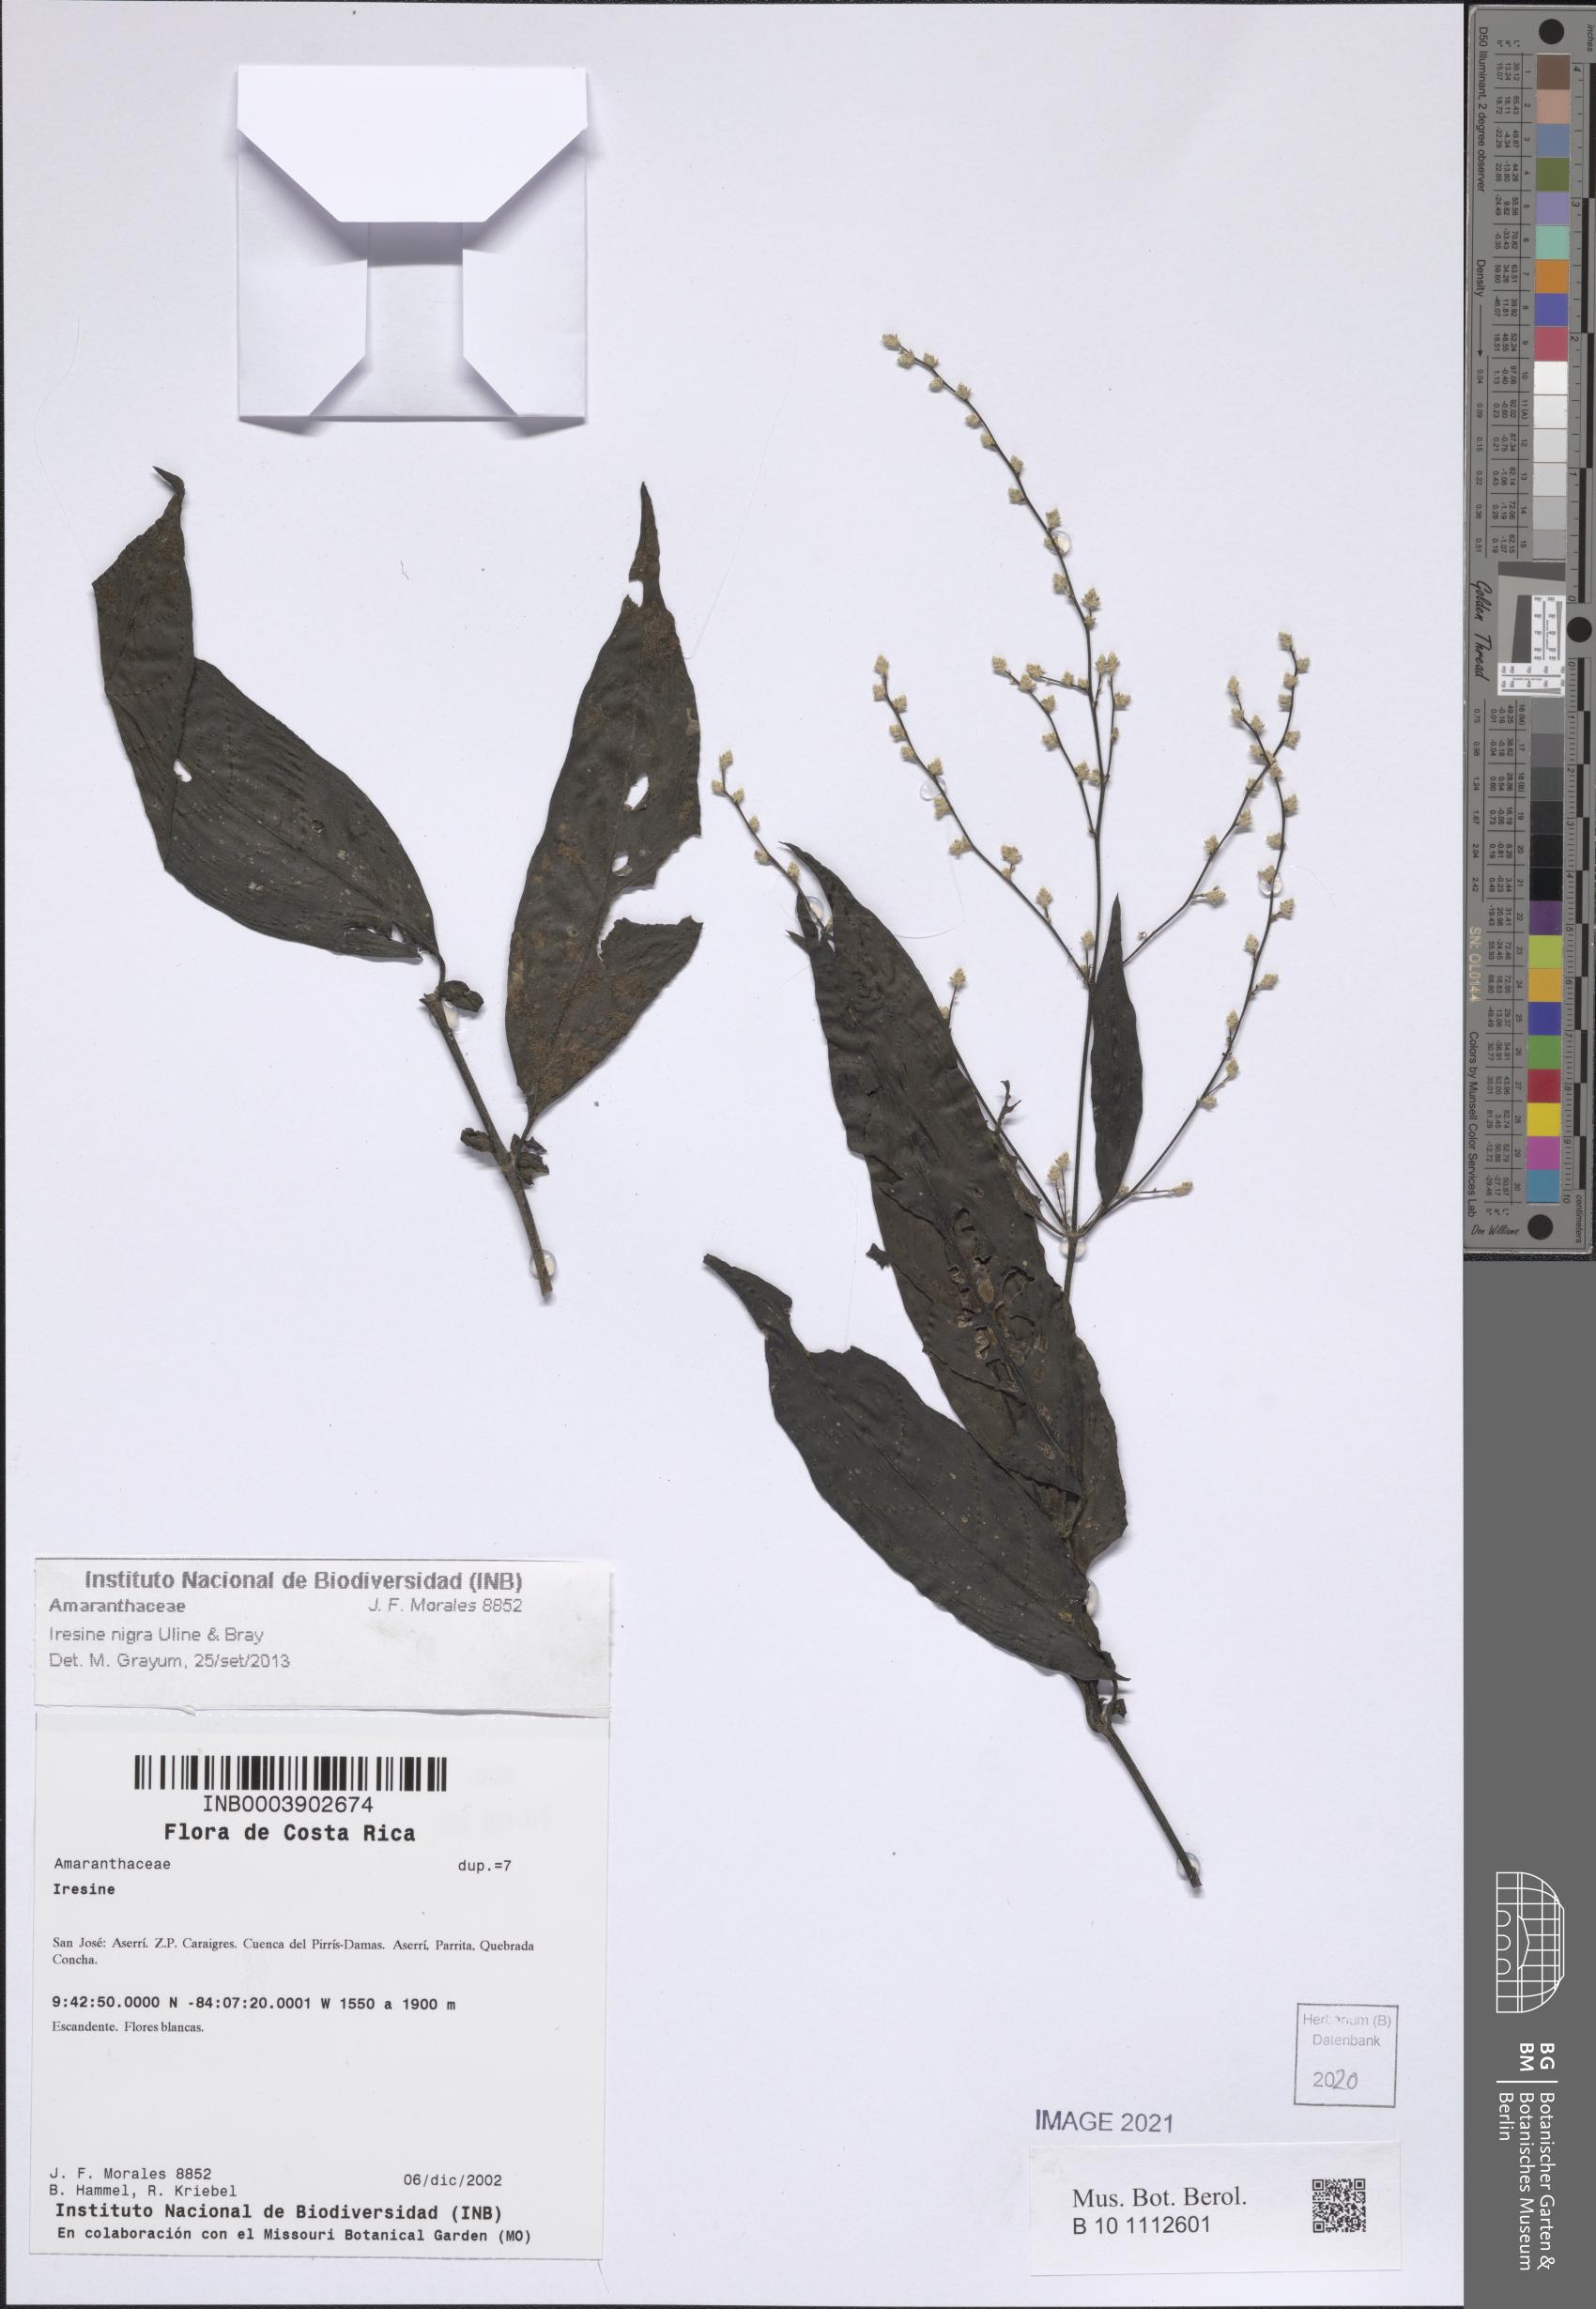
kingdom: Plantae
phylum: Tracheophyta
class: Magnoliopsida
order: Caryophyllales
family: Amaranthaceae
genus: Iresine
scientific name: Iresine nigra
